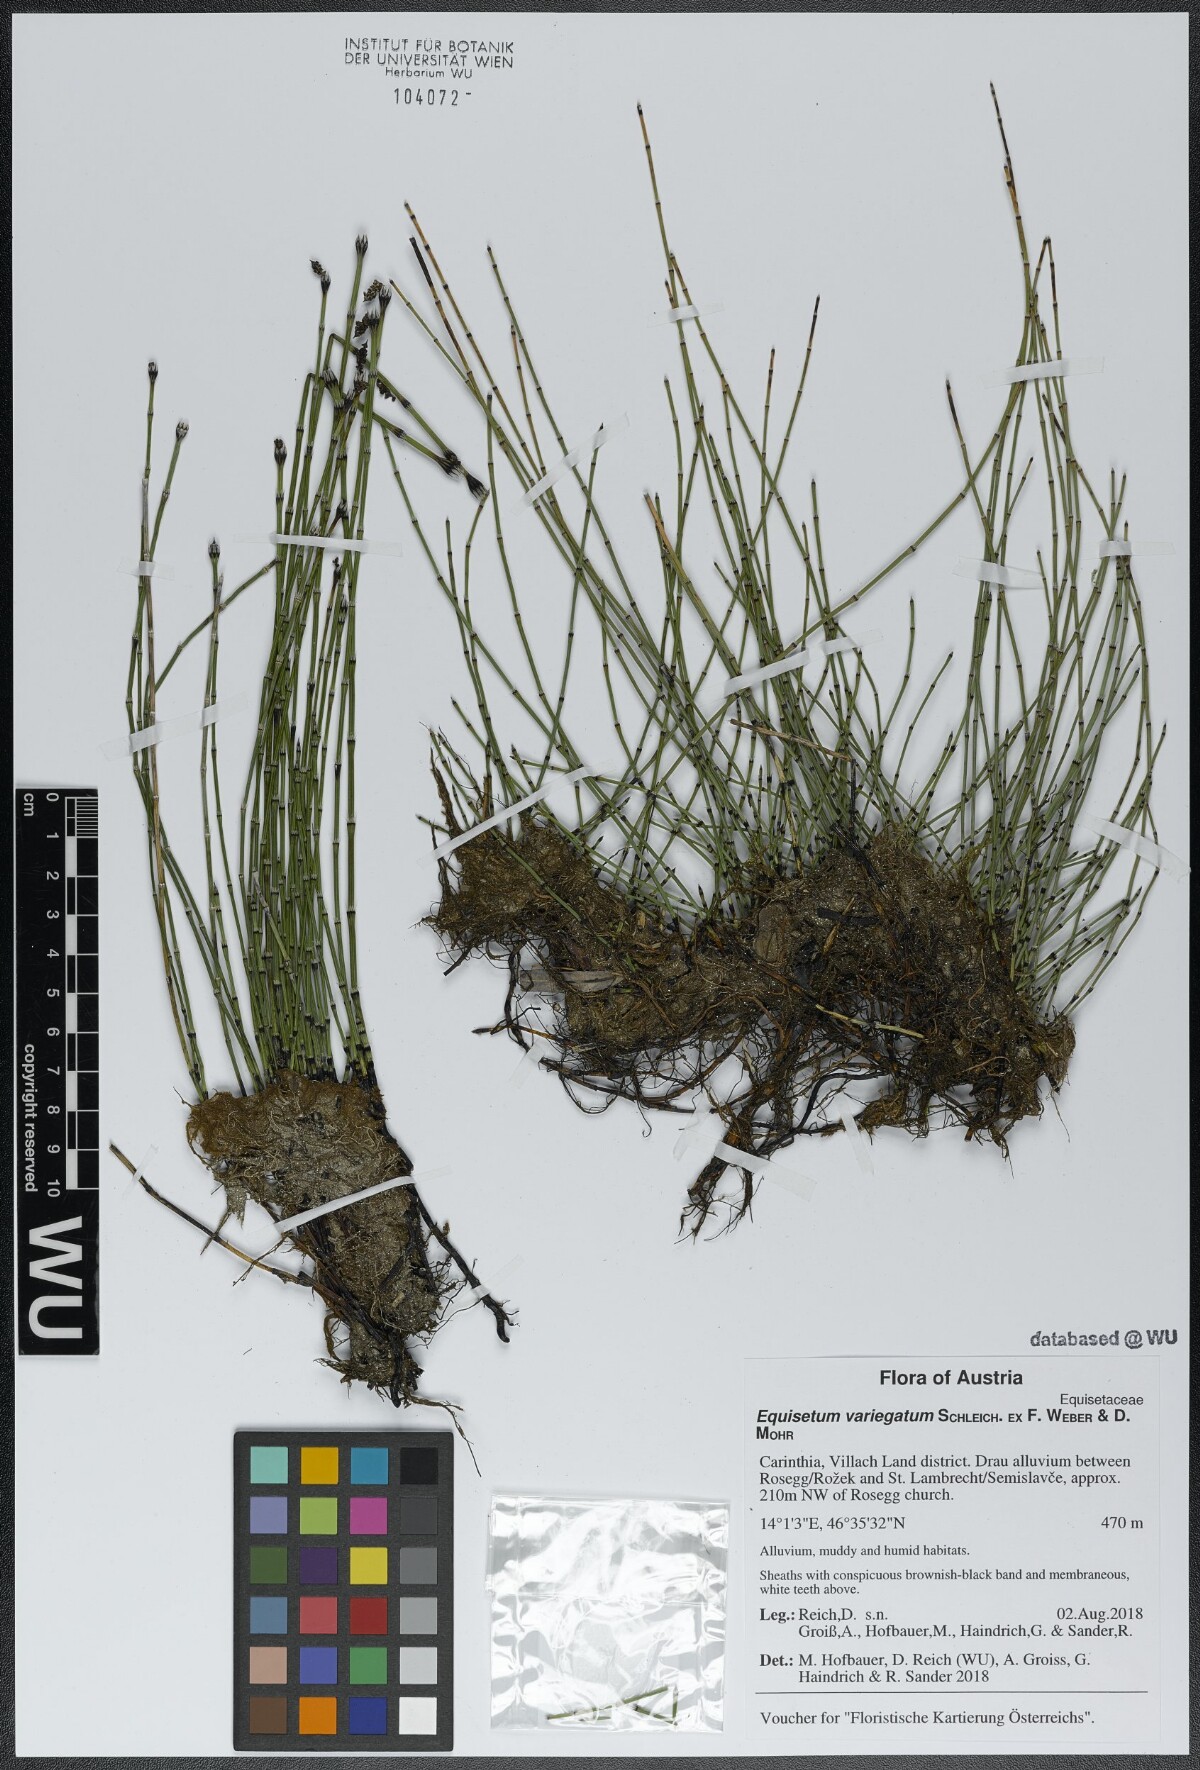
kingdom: Plantae
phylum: Tracheophyta
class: Polypodiopsida
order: Equisetales
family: Equisetaceae
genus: Equisetum
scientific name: Equisetum variegatum
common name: Variegated horsetail
